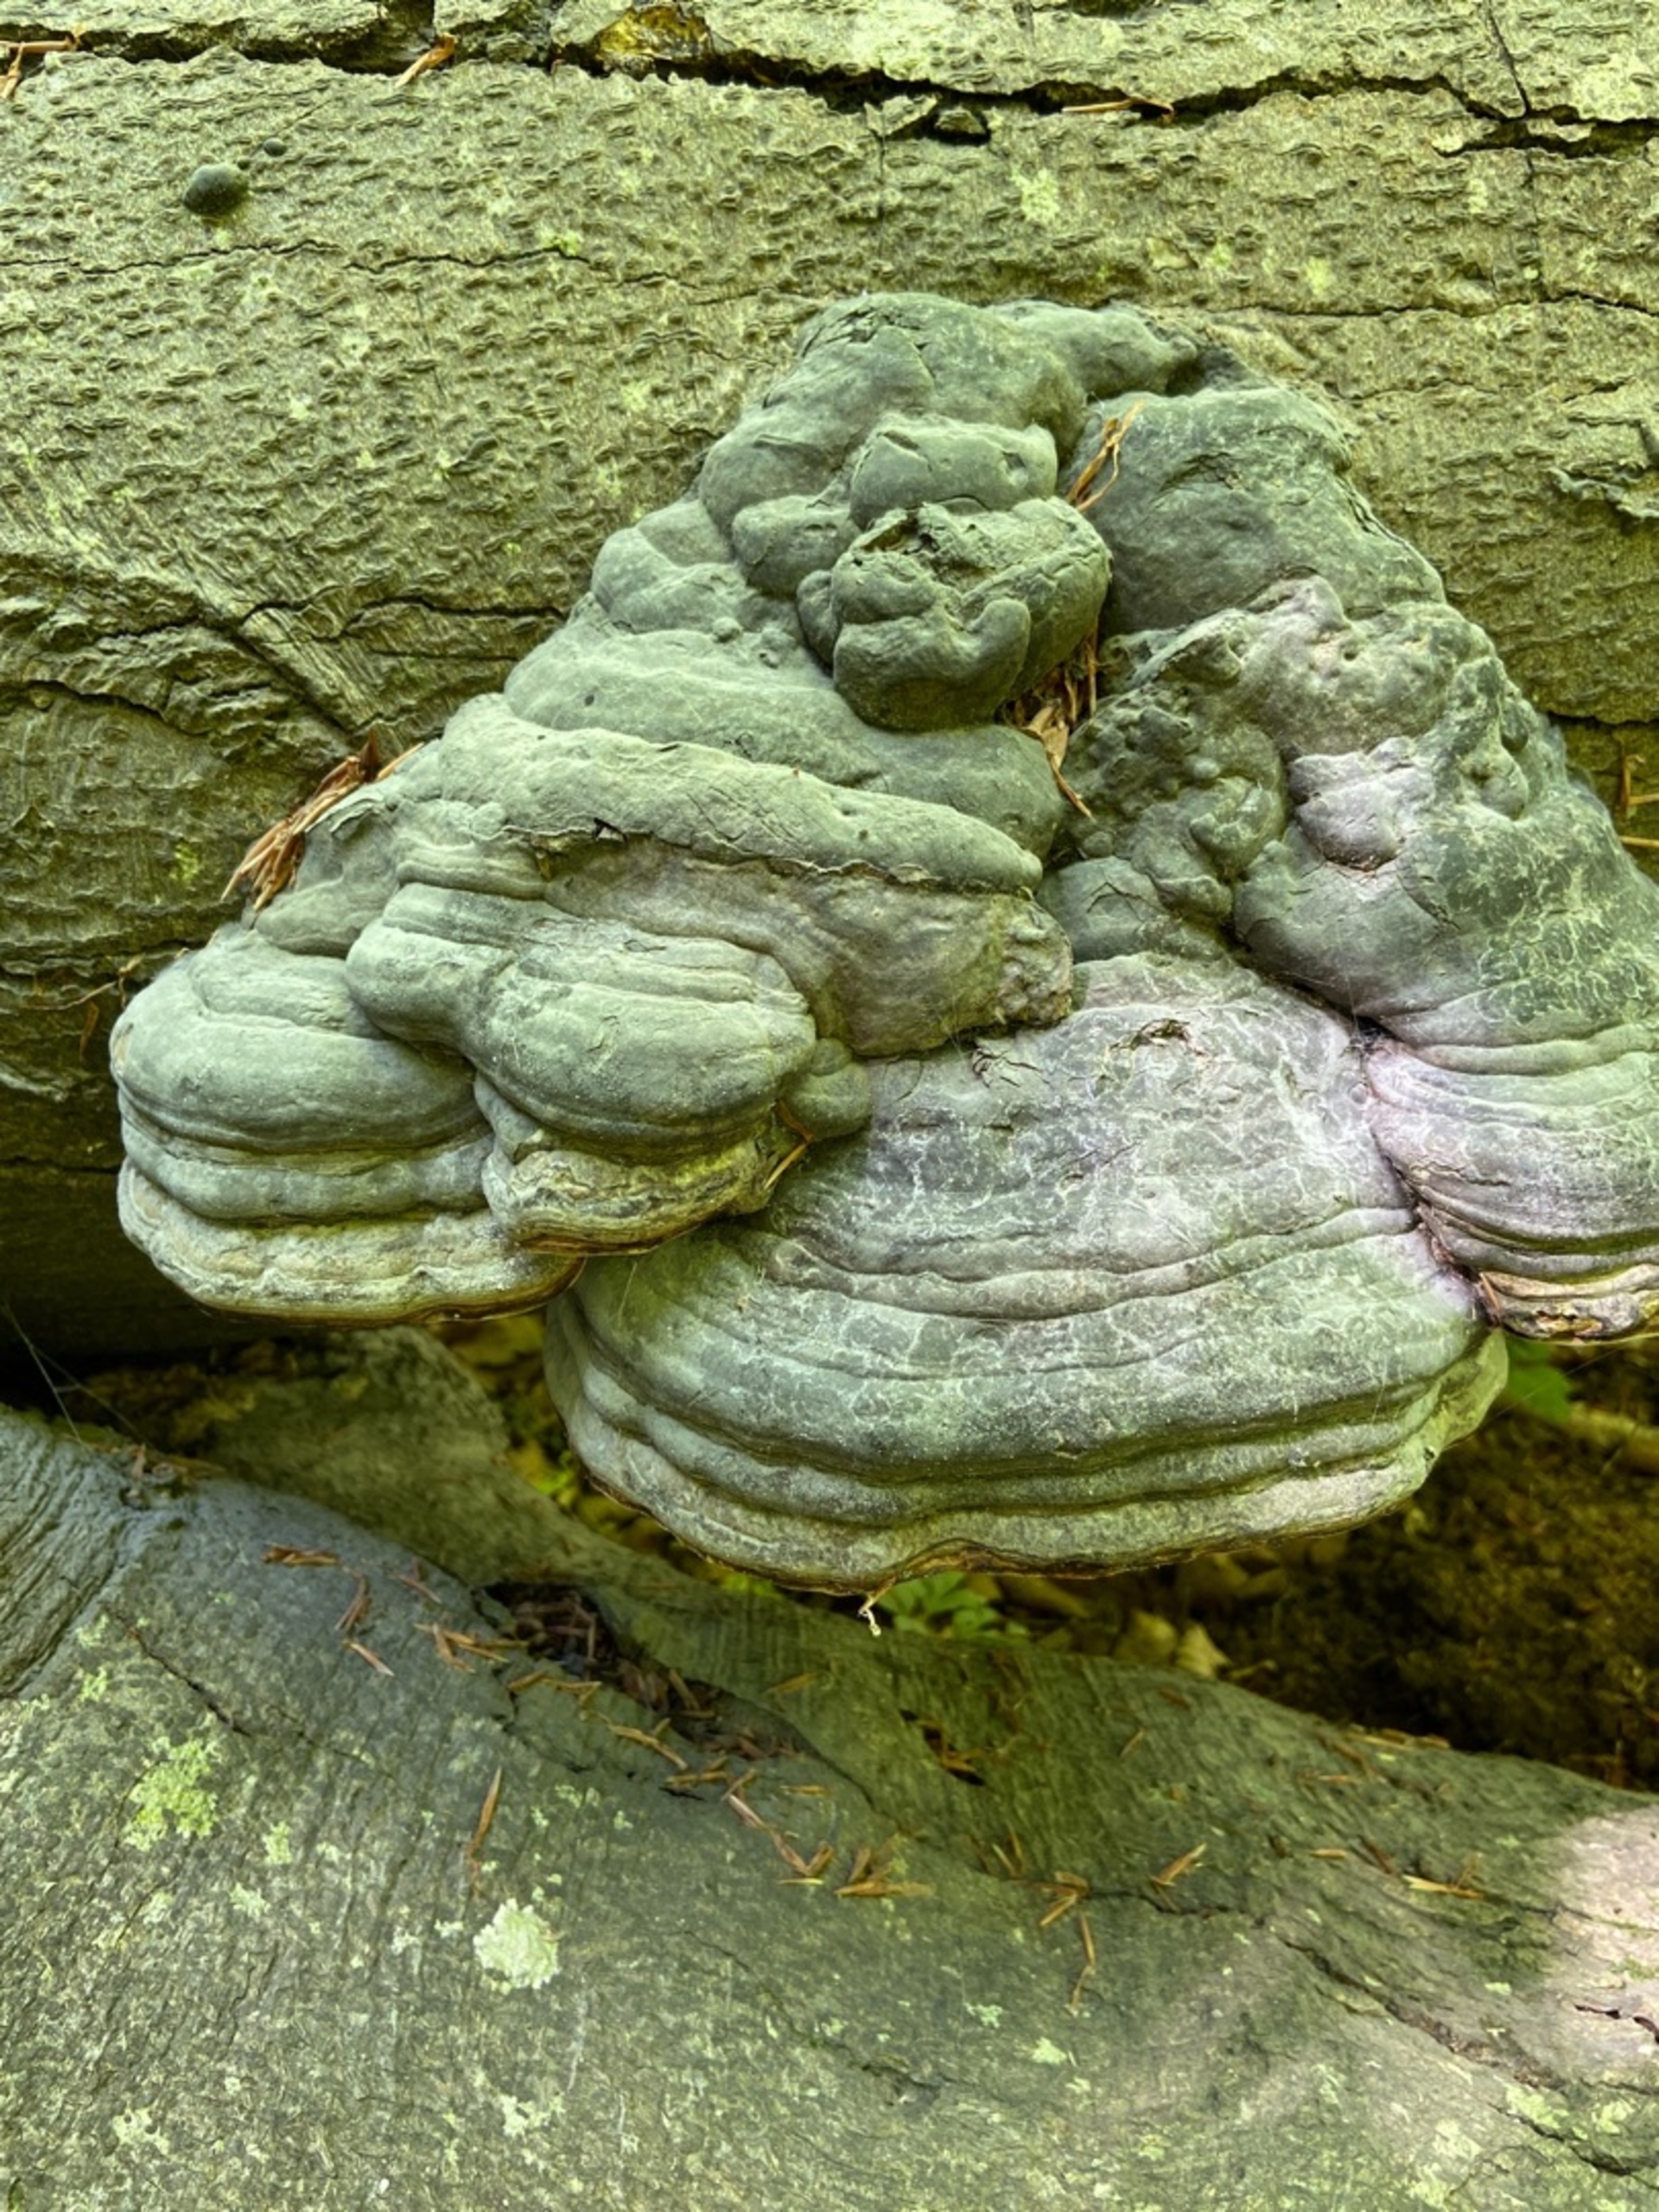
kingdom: Fungi
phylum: Basidiomycota
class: Agaricomycetes
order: Polyporales
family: Polyporaceae
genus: Fomes
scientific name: Fomes fomentarius
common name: Tøndersvamp
